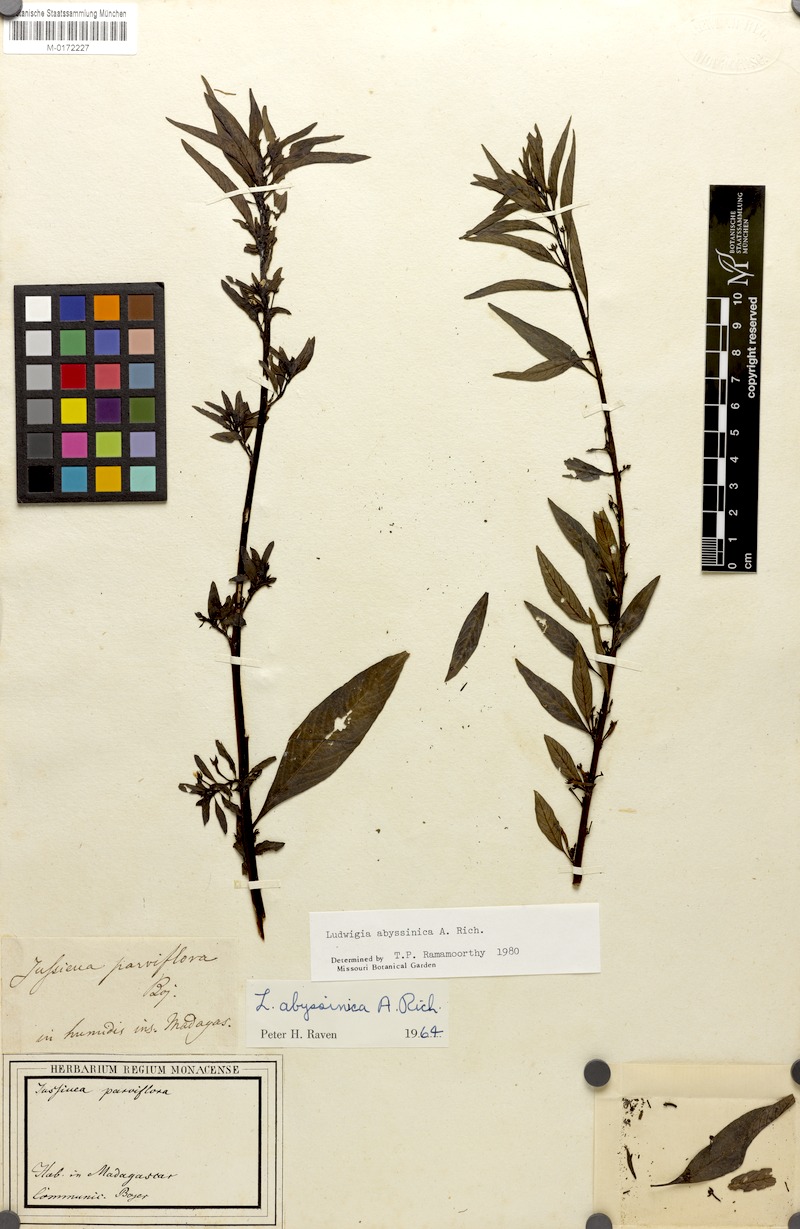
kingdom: Plantae
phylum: Tracheophyta
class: Magnoliopsida
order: Myrtales
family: Onagraceae
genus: Ludwigia
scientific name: Ludwigia abyssinica
